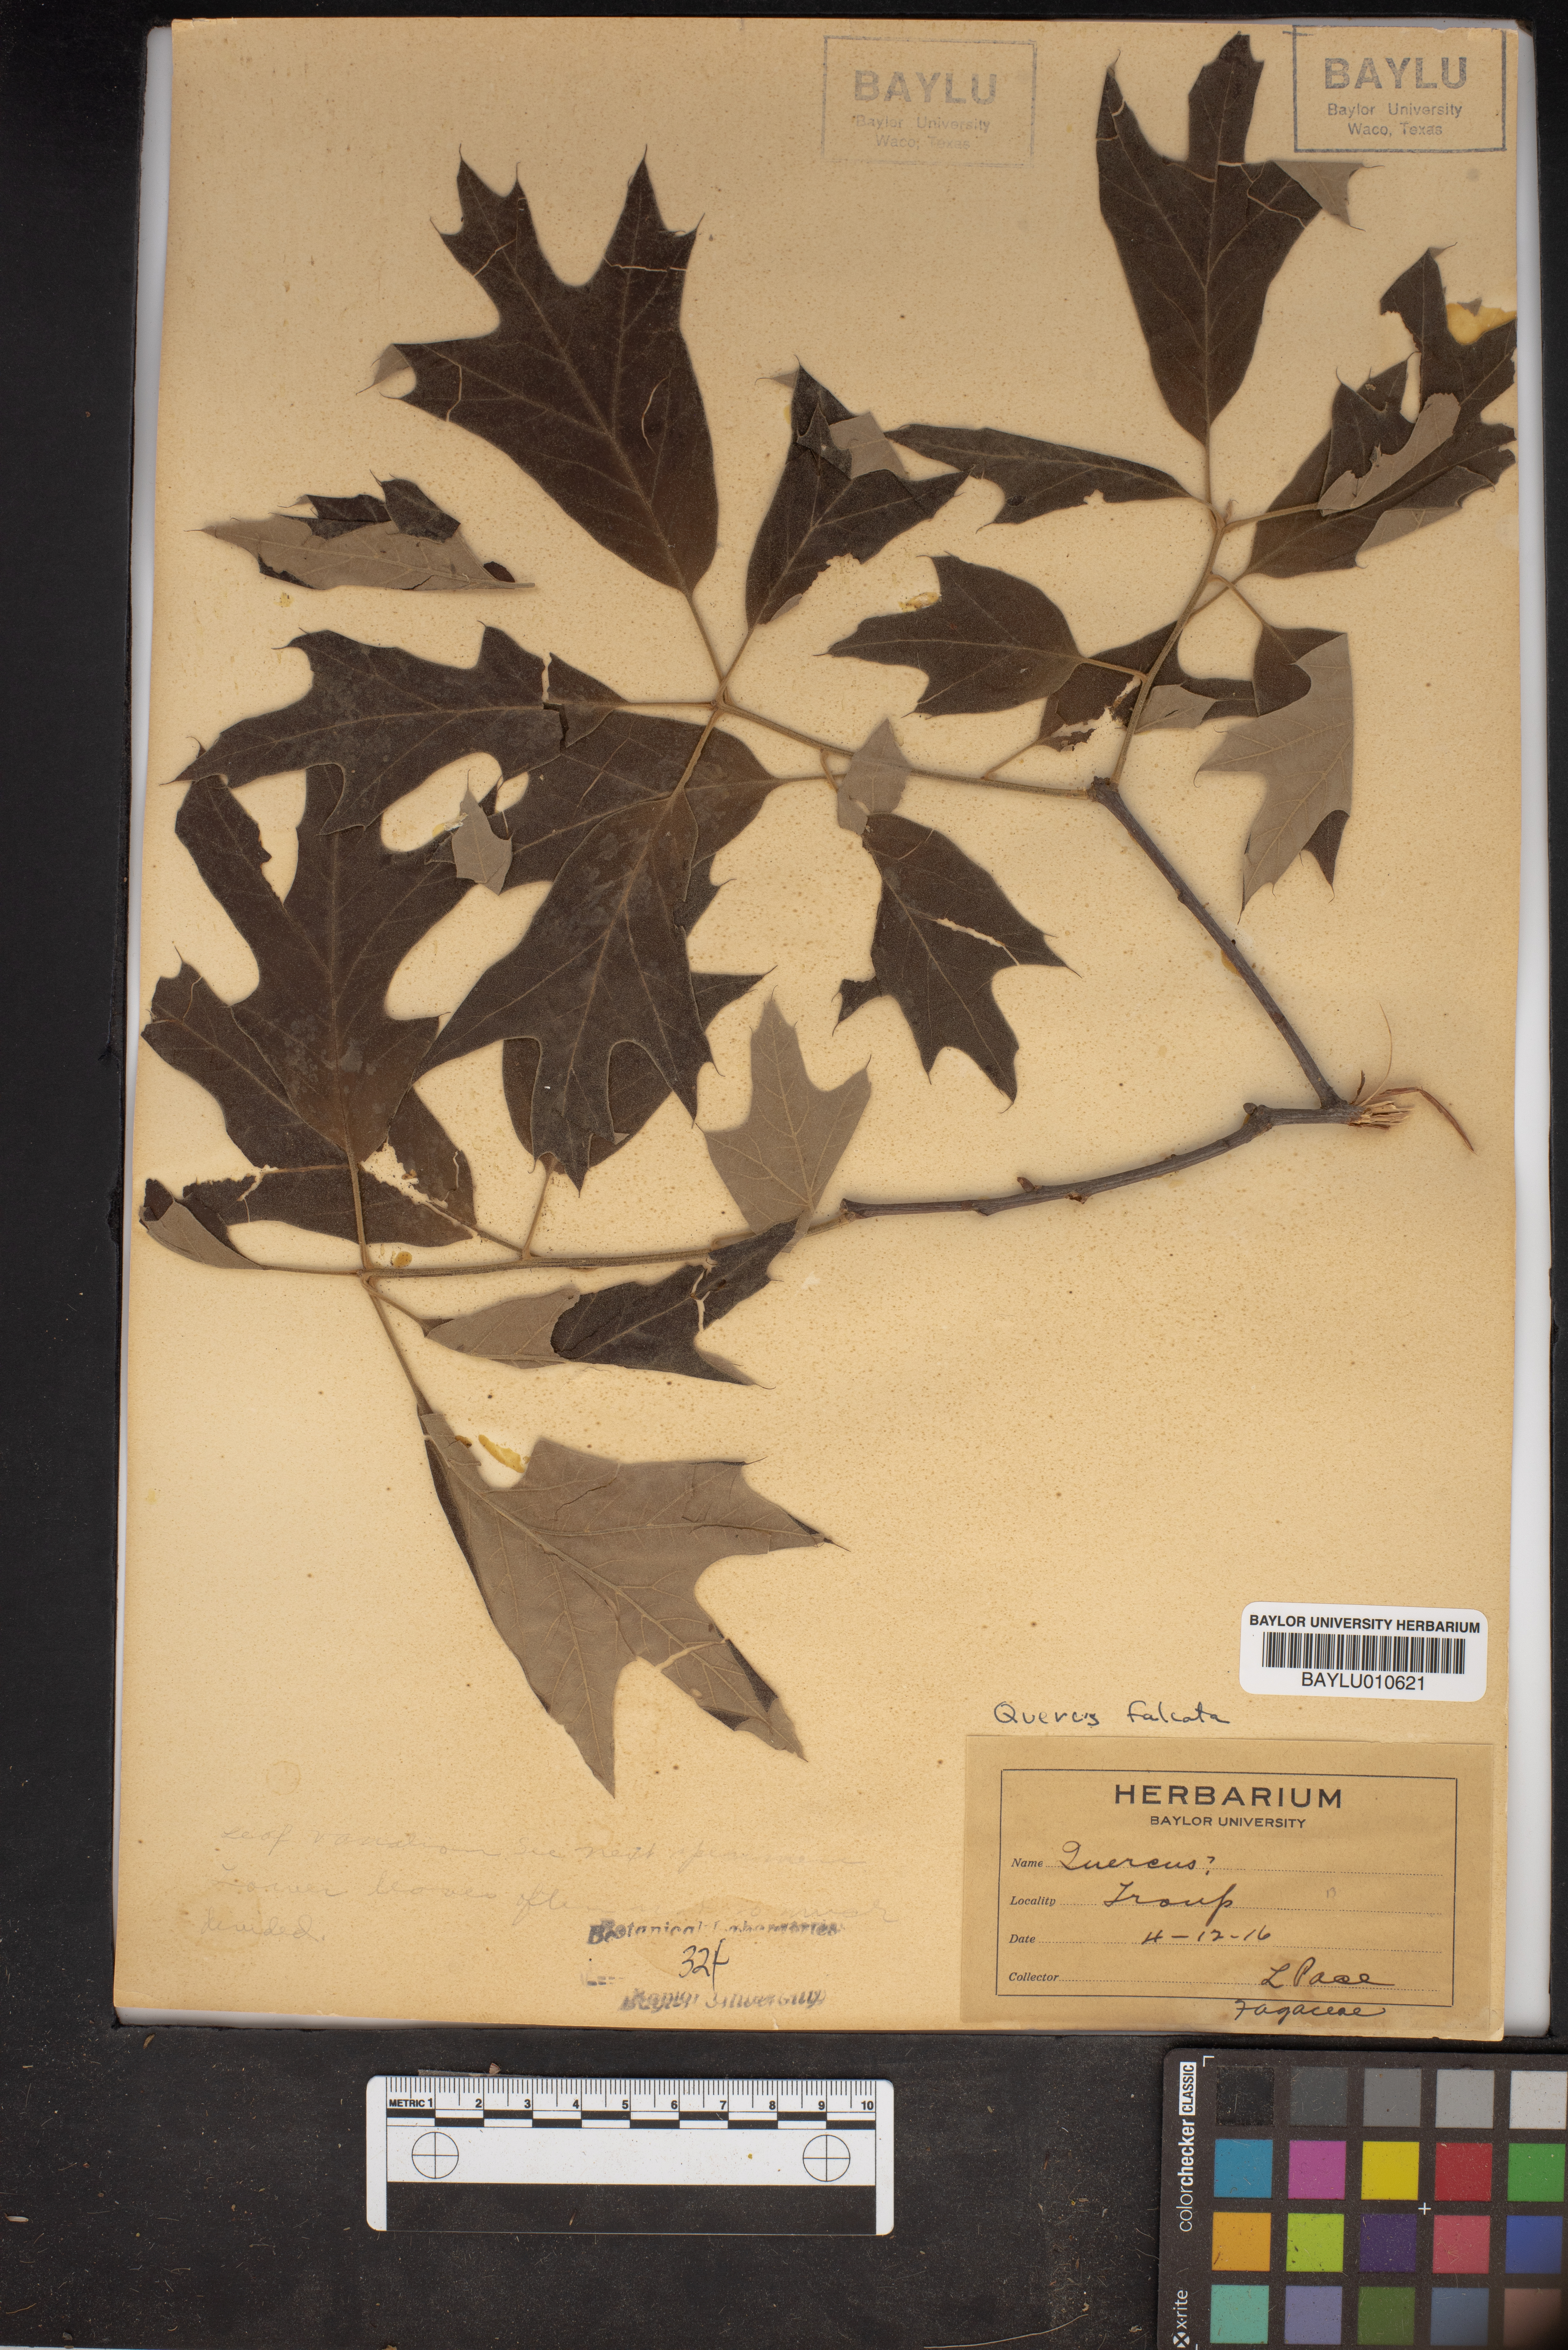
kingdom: Plantae
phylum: Tracheophyta
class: Magnoliopsida
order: Fagales
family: Fagaceae
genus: Quercus
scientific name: Quercus falcata
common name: Southern red oak
